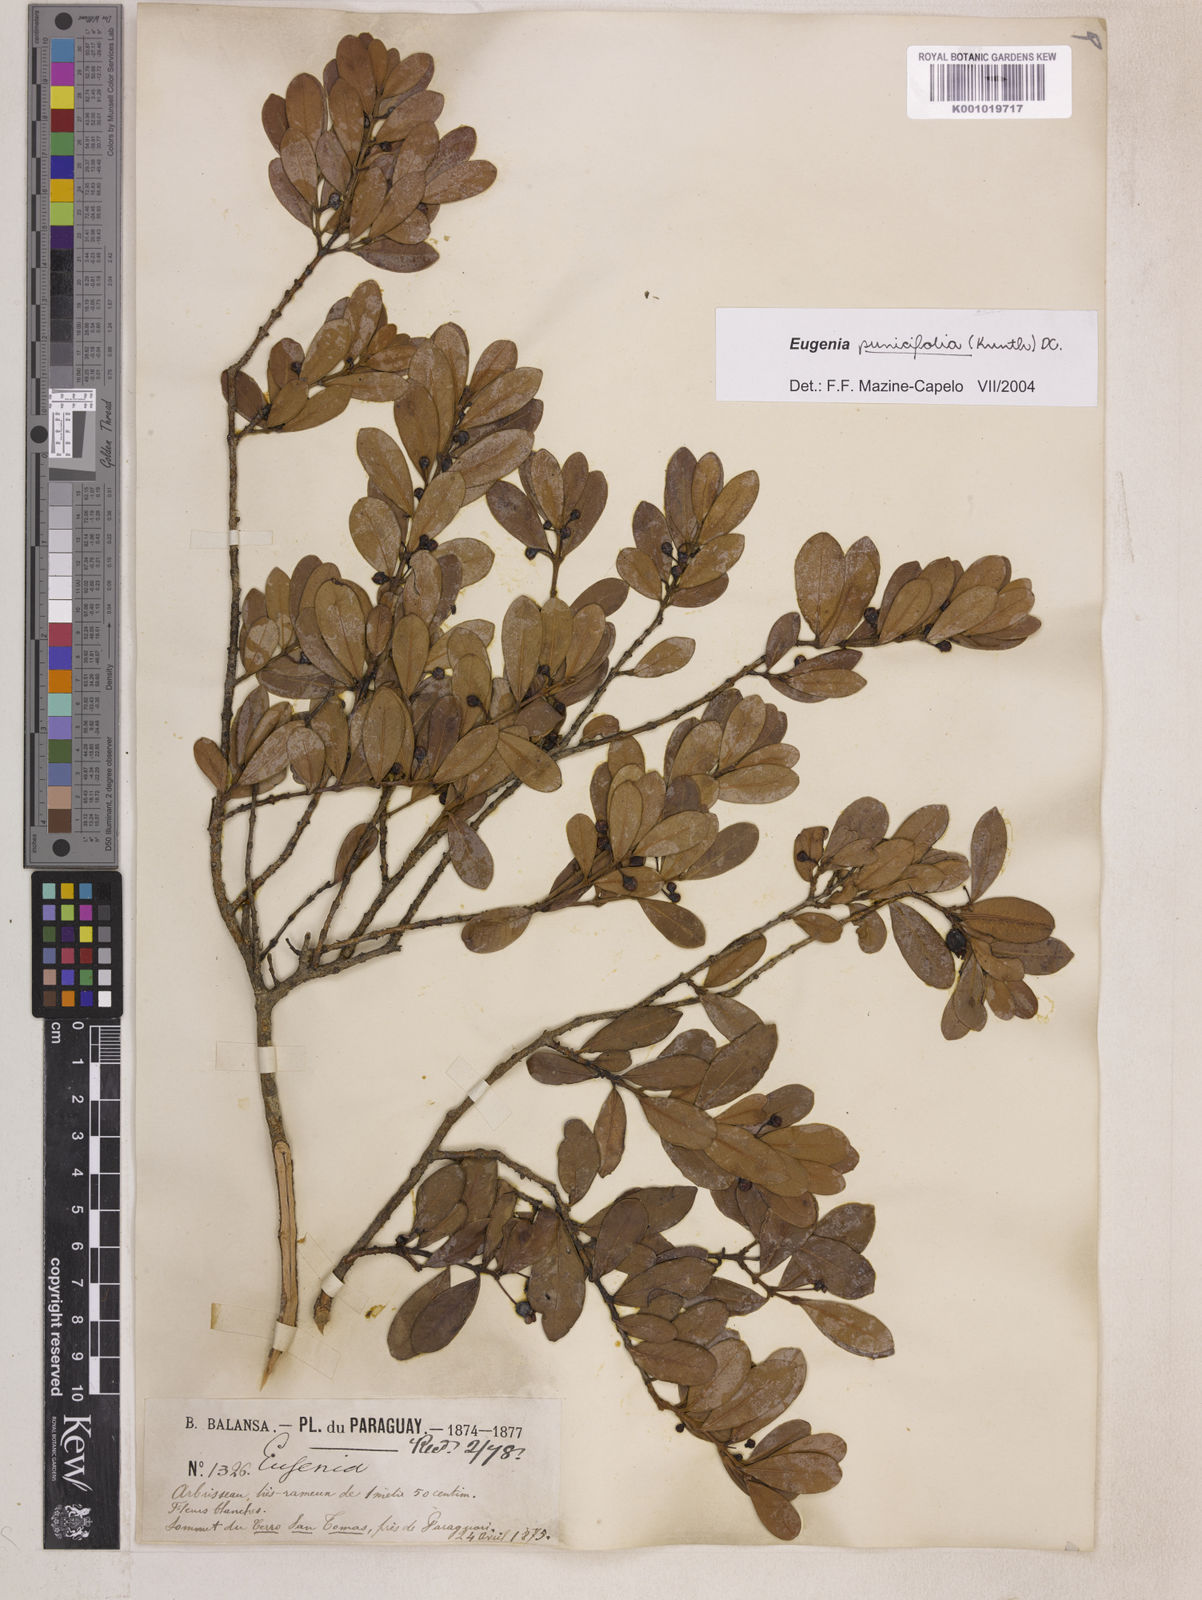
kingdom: Plantae
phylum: Tracheophyta
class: Magnoliopsida
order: Myrtales
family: Myrtaceae
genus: Eugenia
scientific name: Eugenia punicifolia
